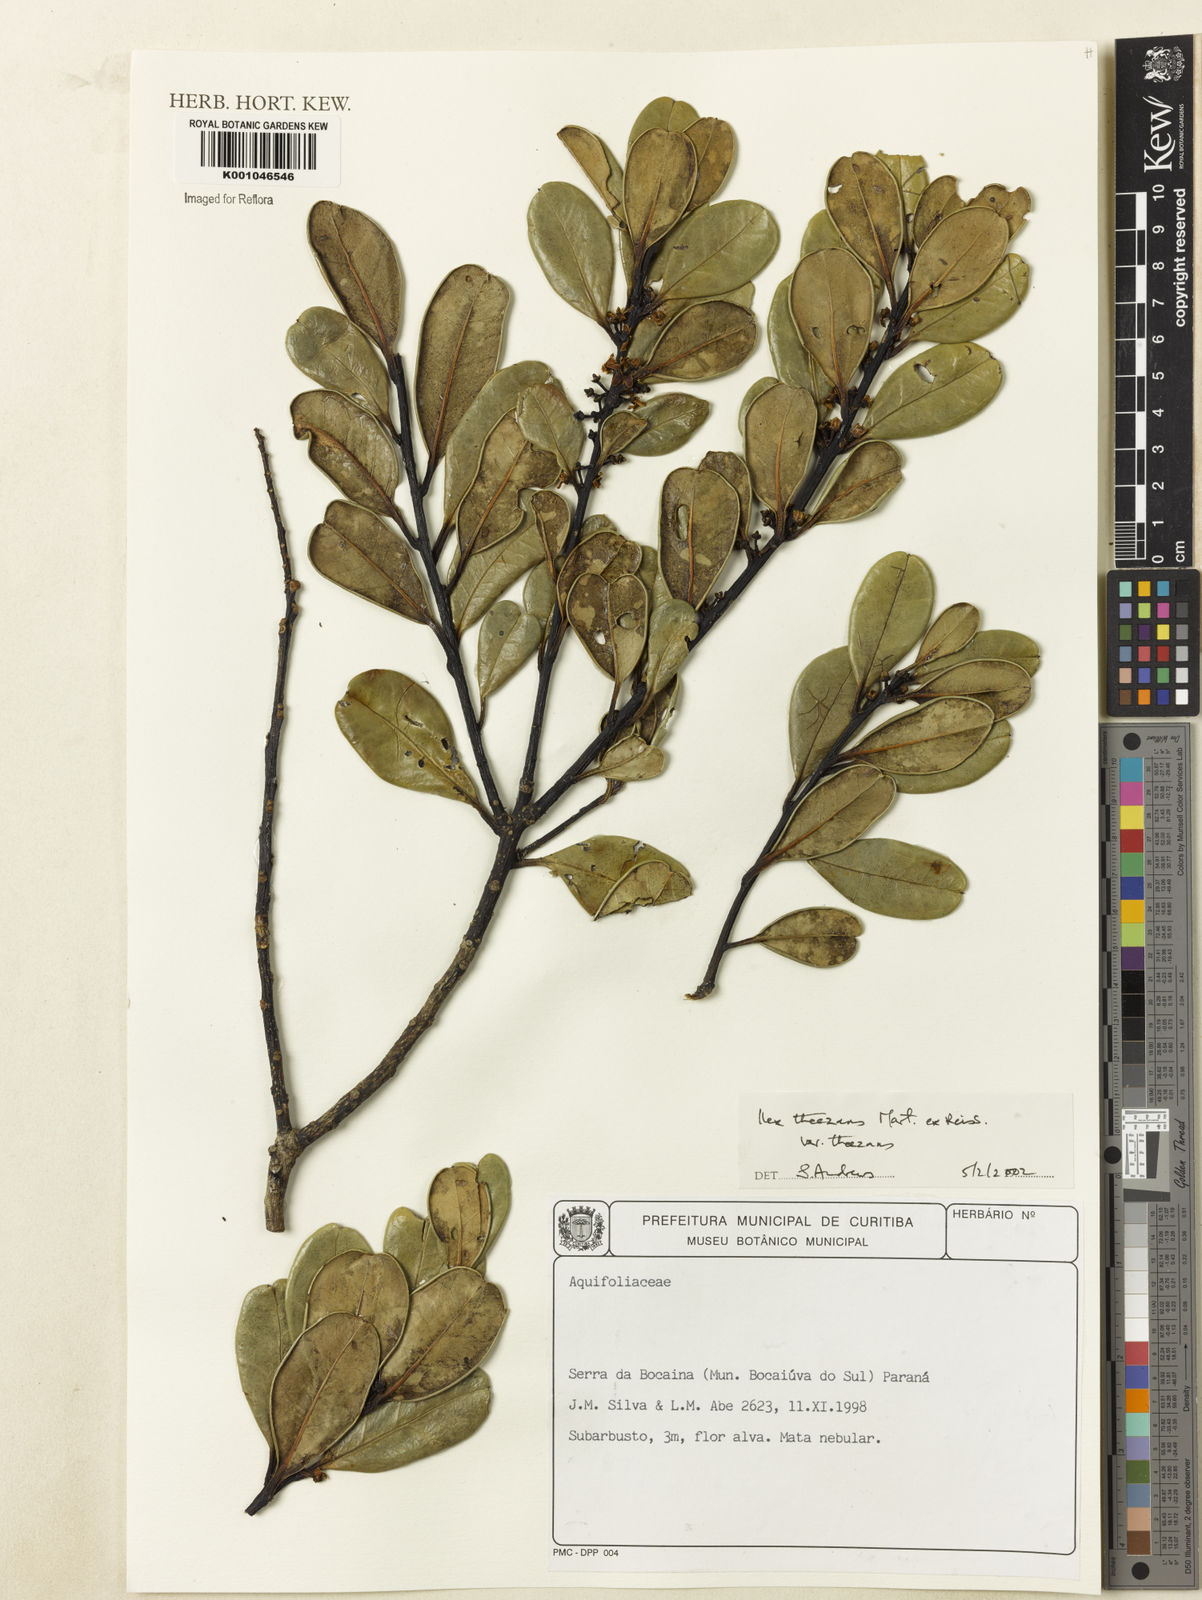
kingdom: Plantae
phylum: Tracheophyta
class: Magnoliopsida
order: Aquifoliales
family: Aquifoliaceae
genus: Ilex
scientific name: Ilex theezans
